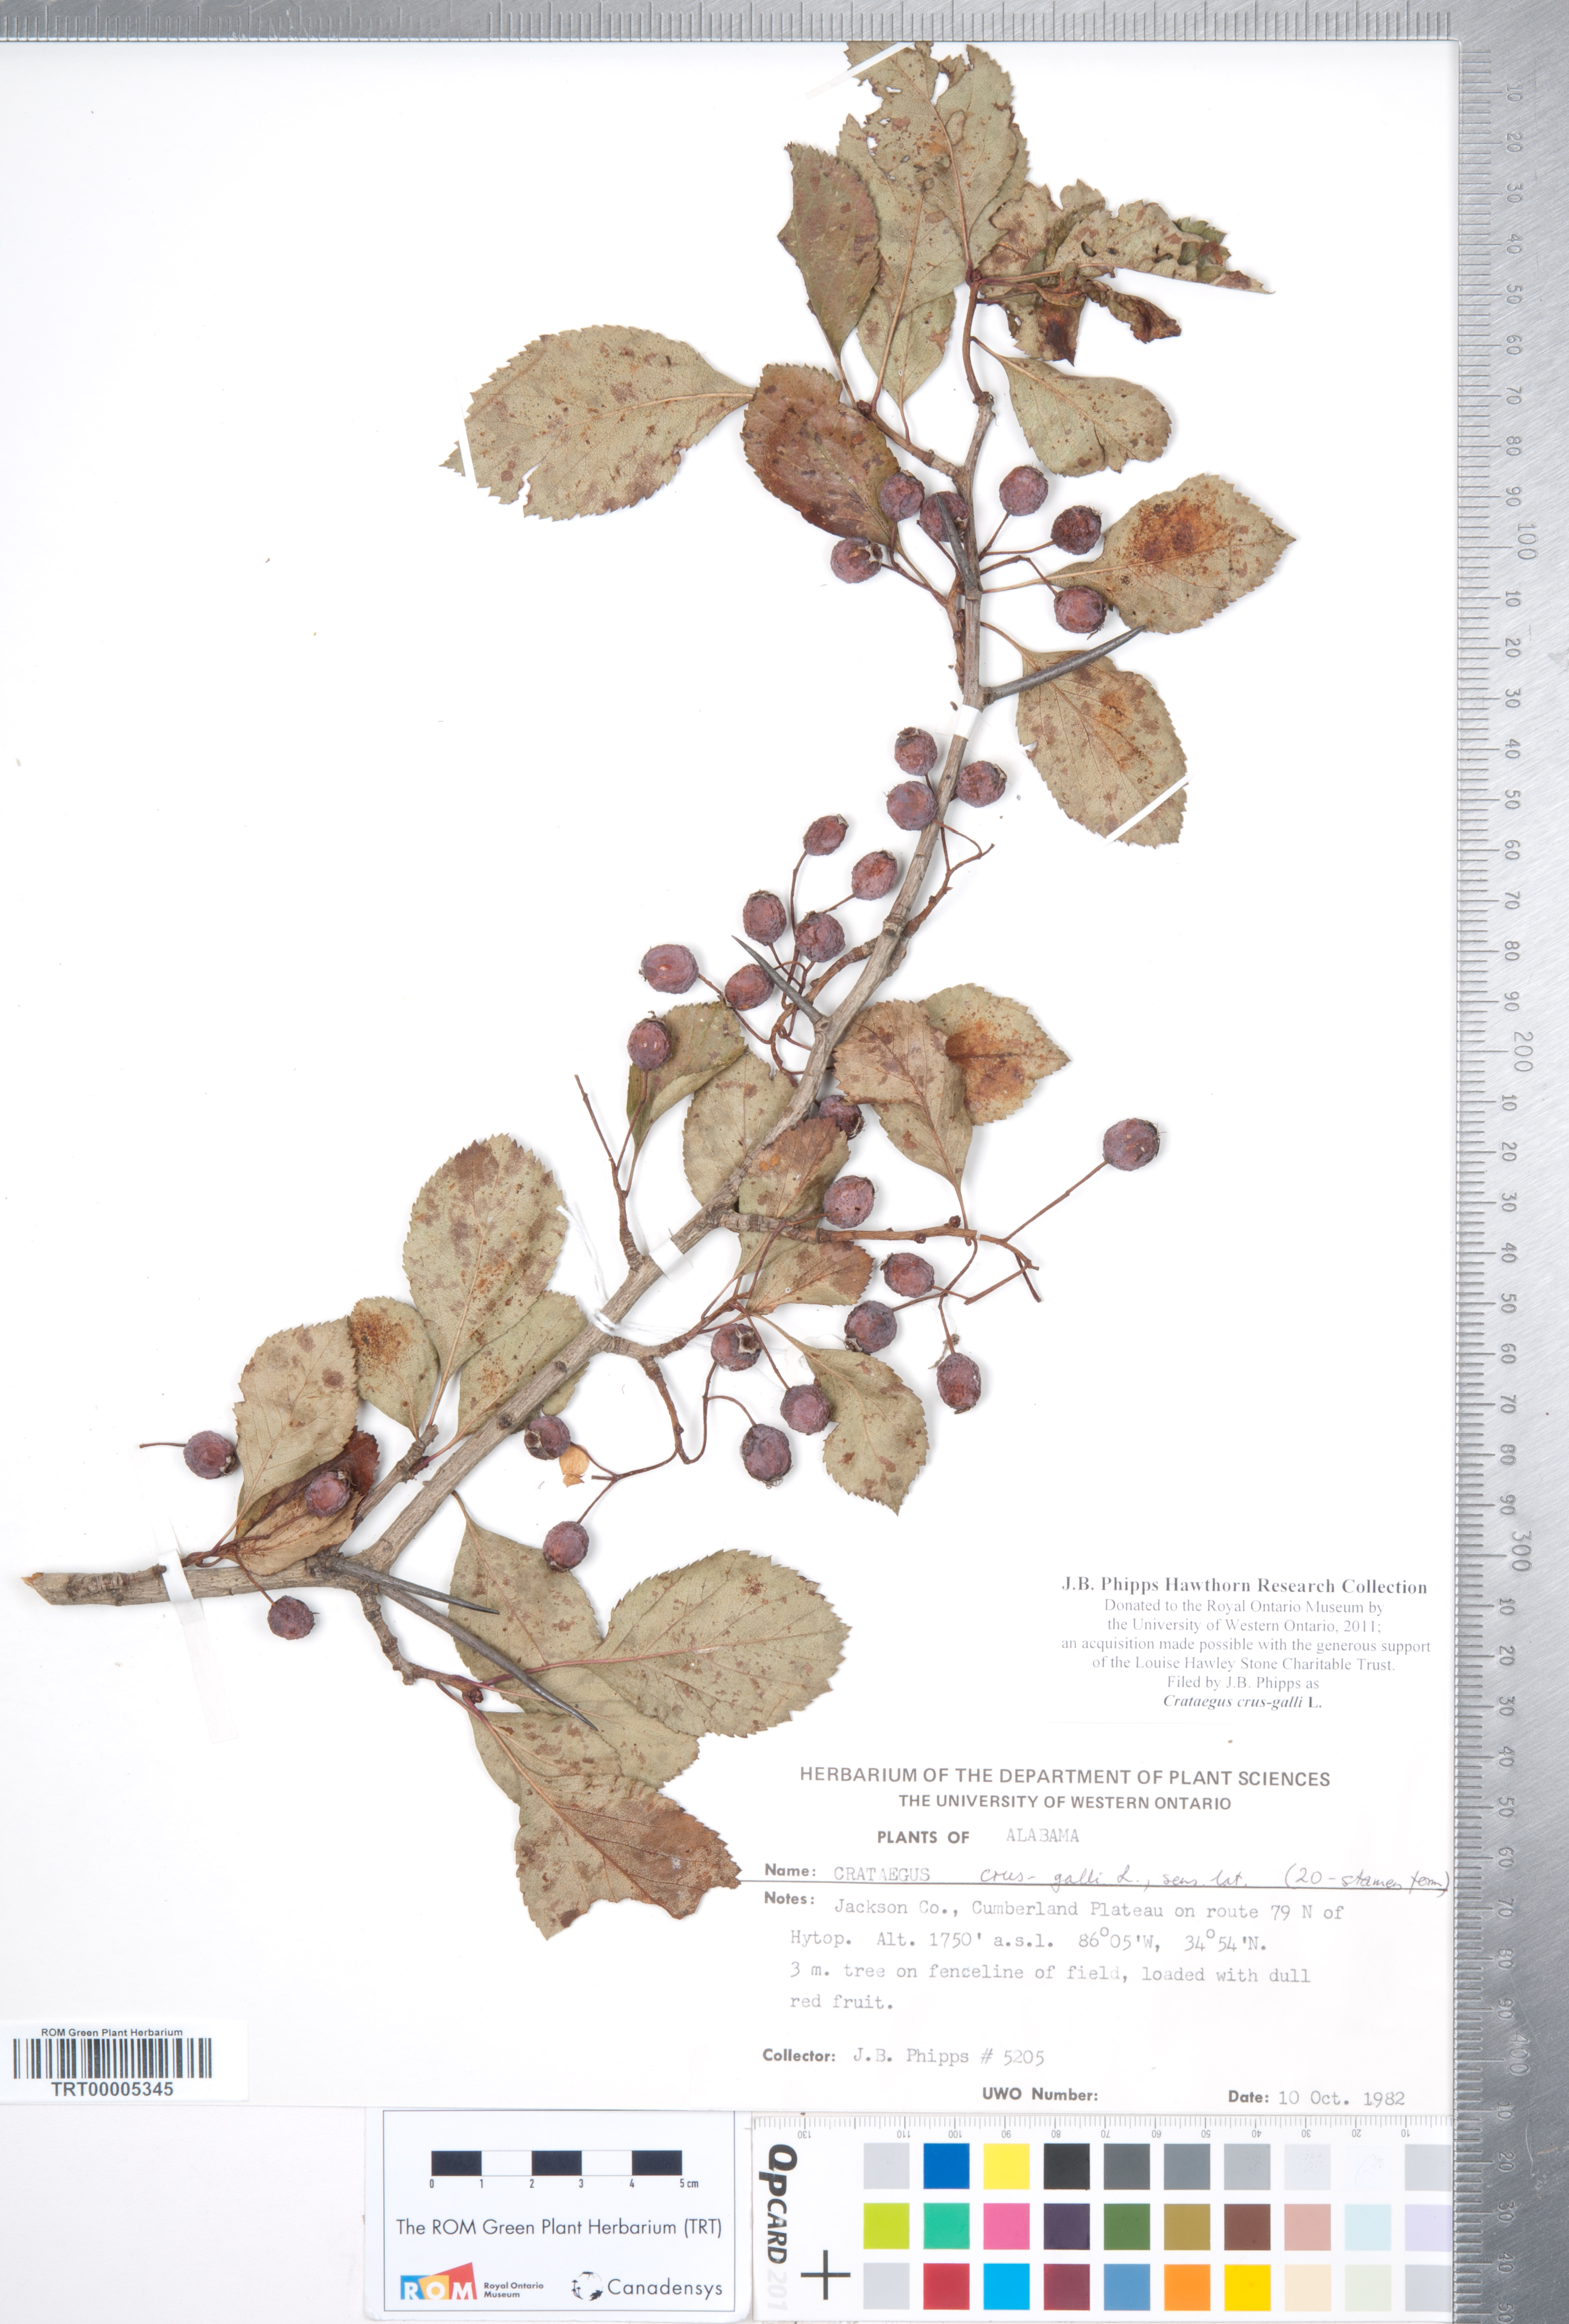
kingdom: Plantae
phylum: Tracheophyta
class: Magnoliopsida
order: Rosales
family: Rosaceae
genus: Crataegus
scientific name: Crataegus crus-galli
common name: Cockspurthorn
